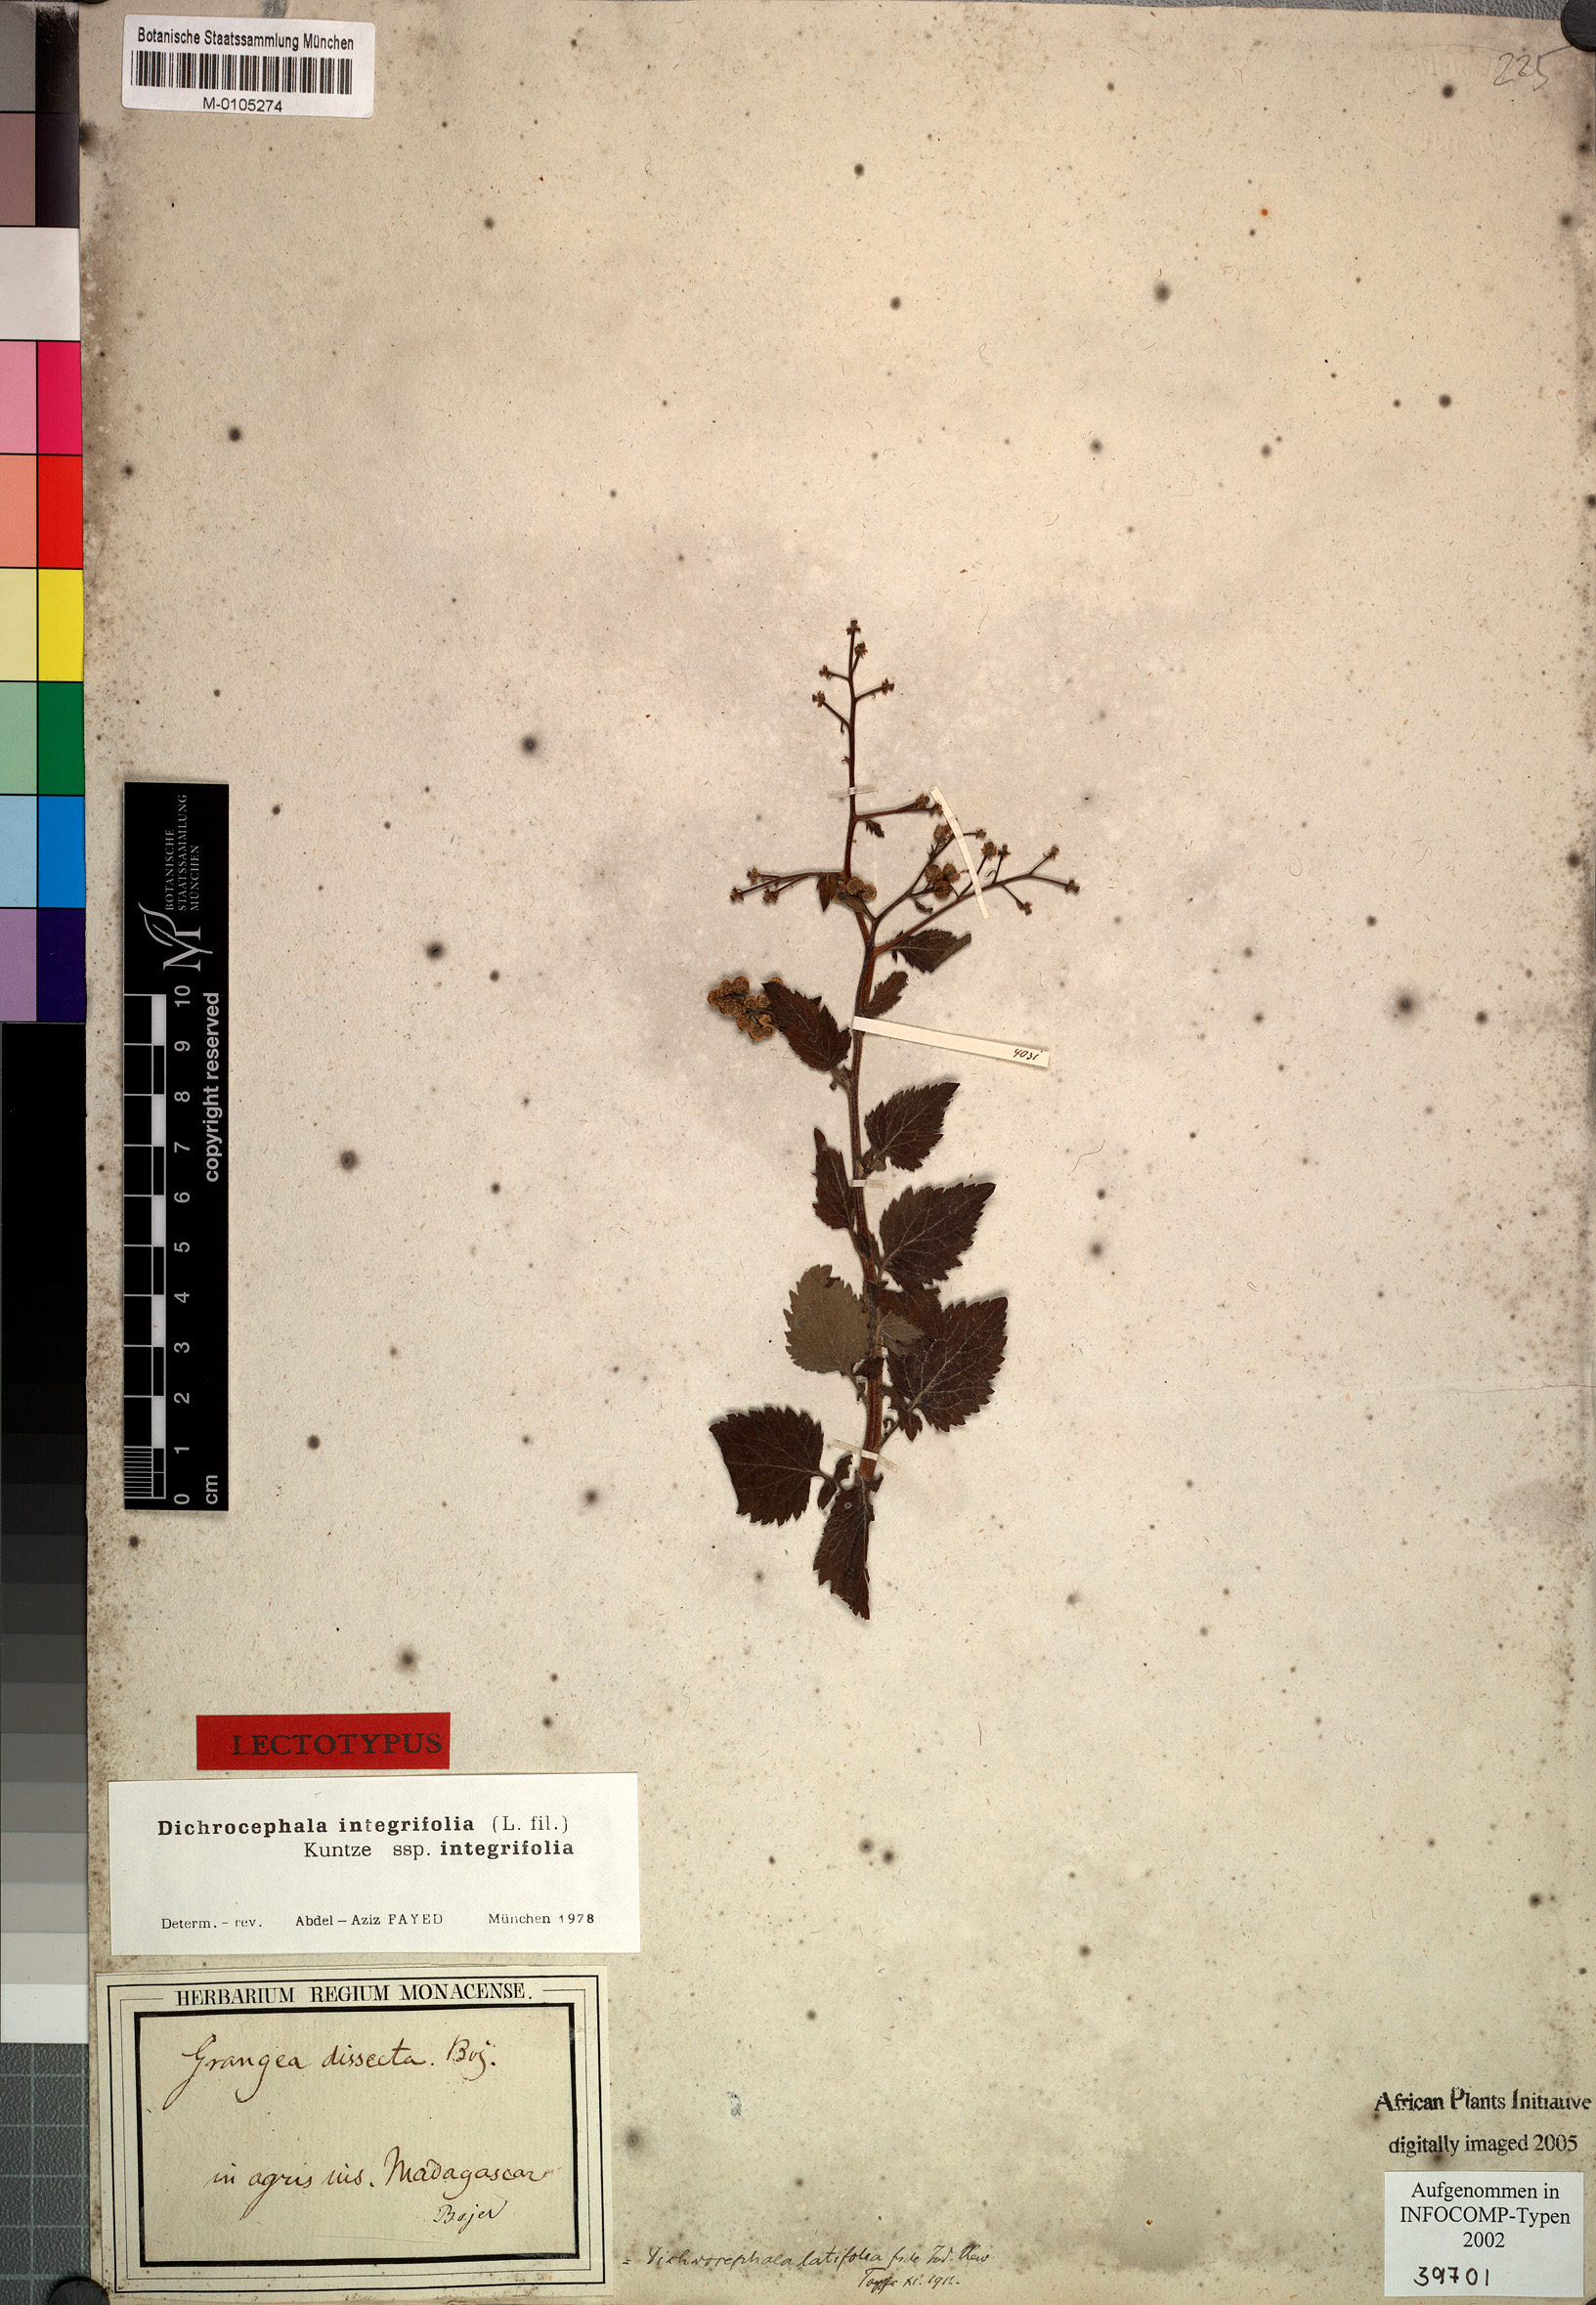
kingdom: Plantae
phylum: Tracheophyta
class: Magnoliopsida
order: Asterales
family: Asteraceae
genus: Dichrocephala
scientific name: Dichrocephala integrifolia
